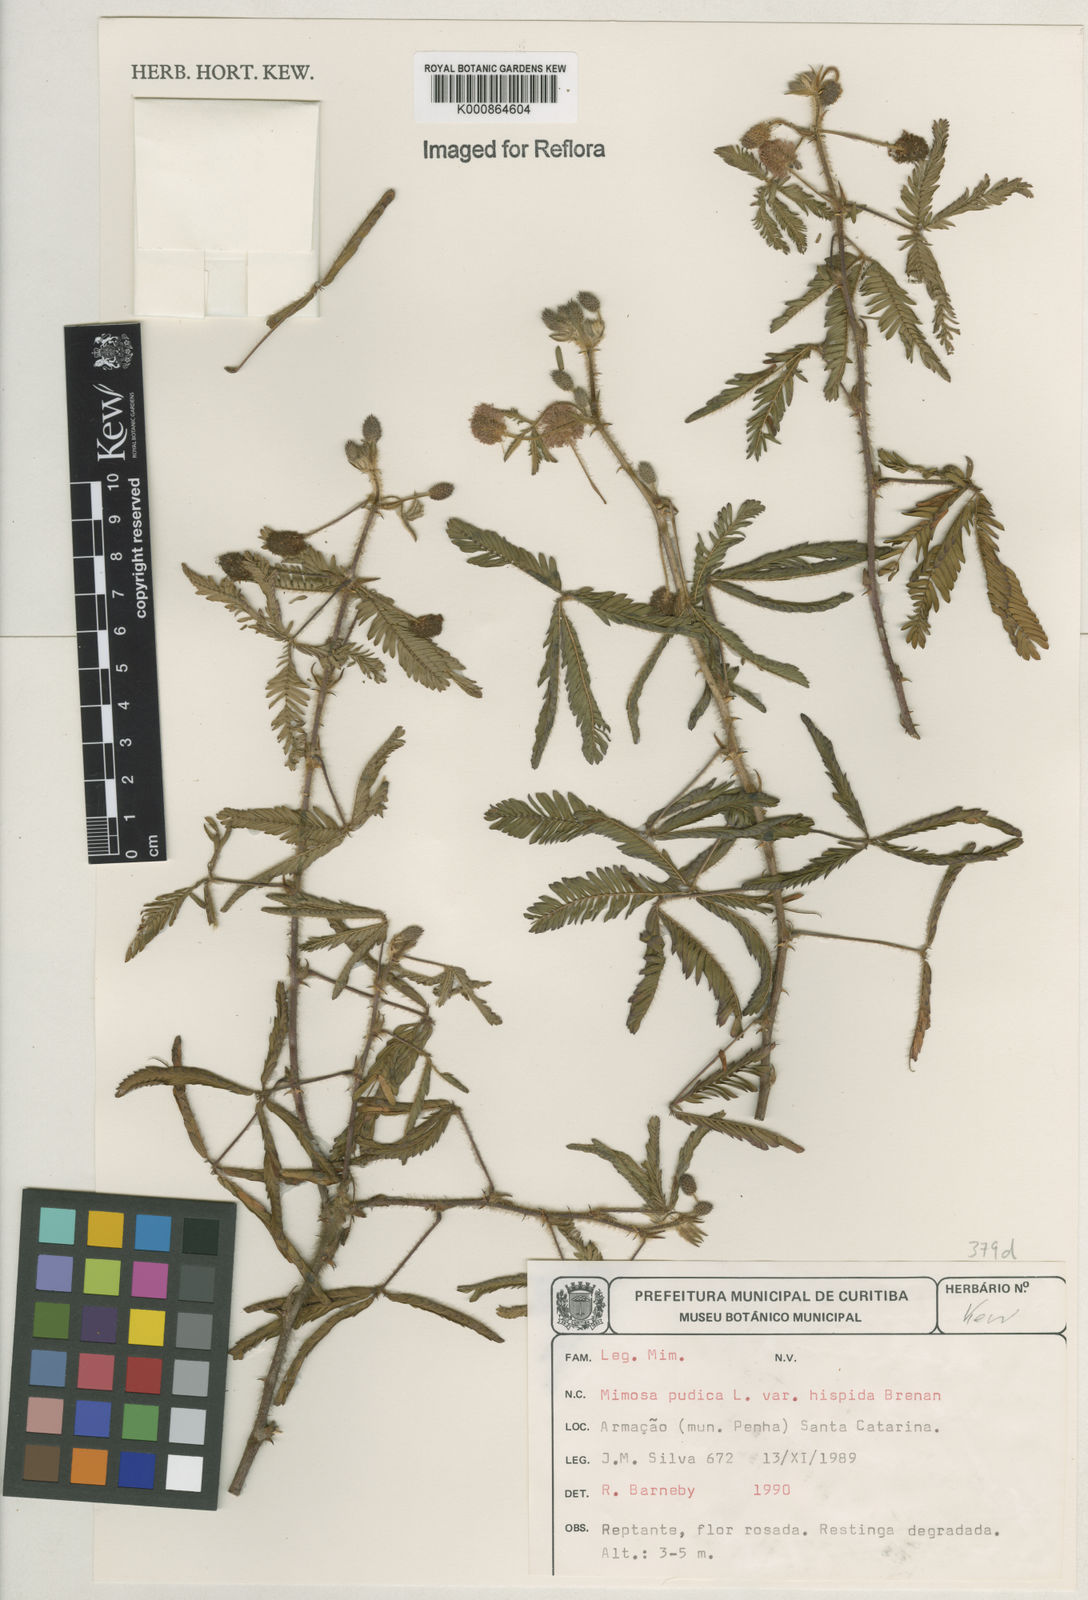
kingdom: Plantae
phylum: Tracheophyta
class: Magnoliopsida
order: Fabales
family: Fabaceae
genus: Mimosa
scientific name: Mimosa pudica
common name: Sensitive plant
